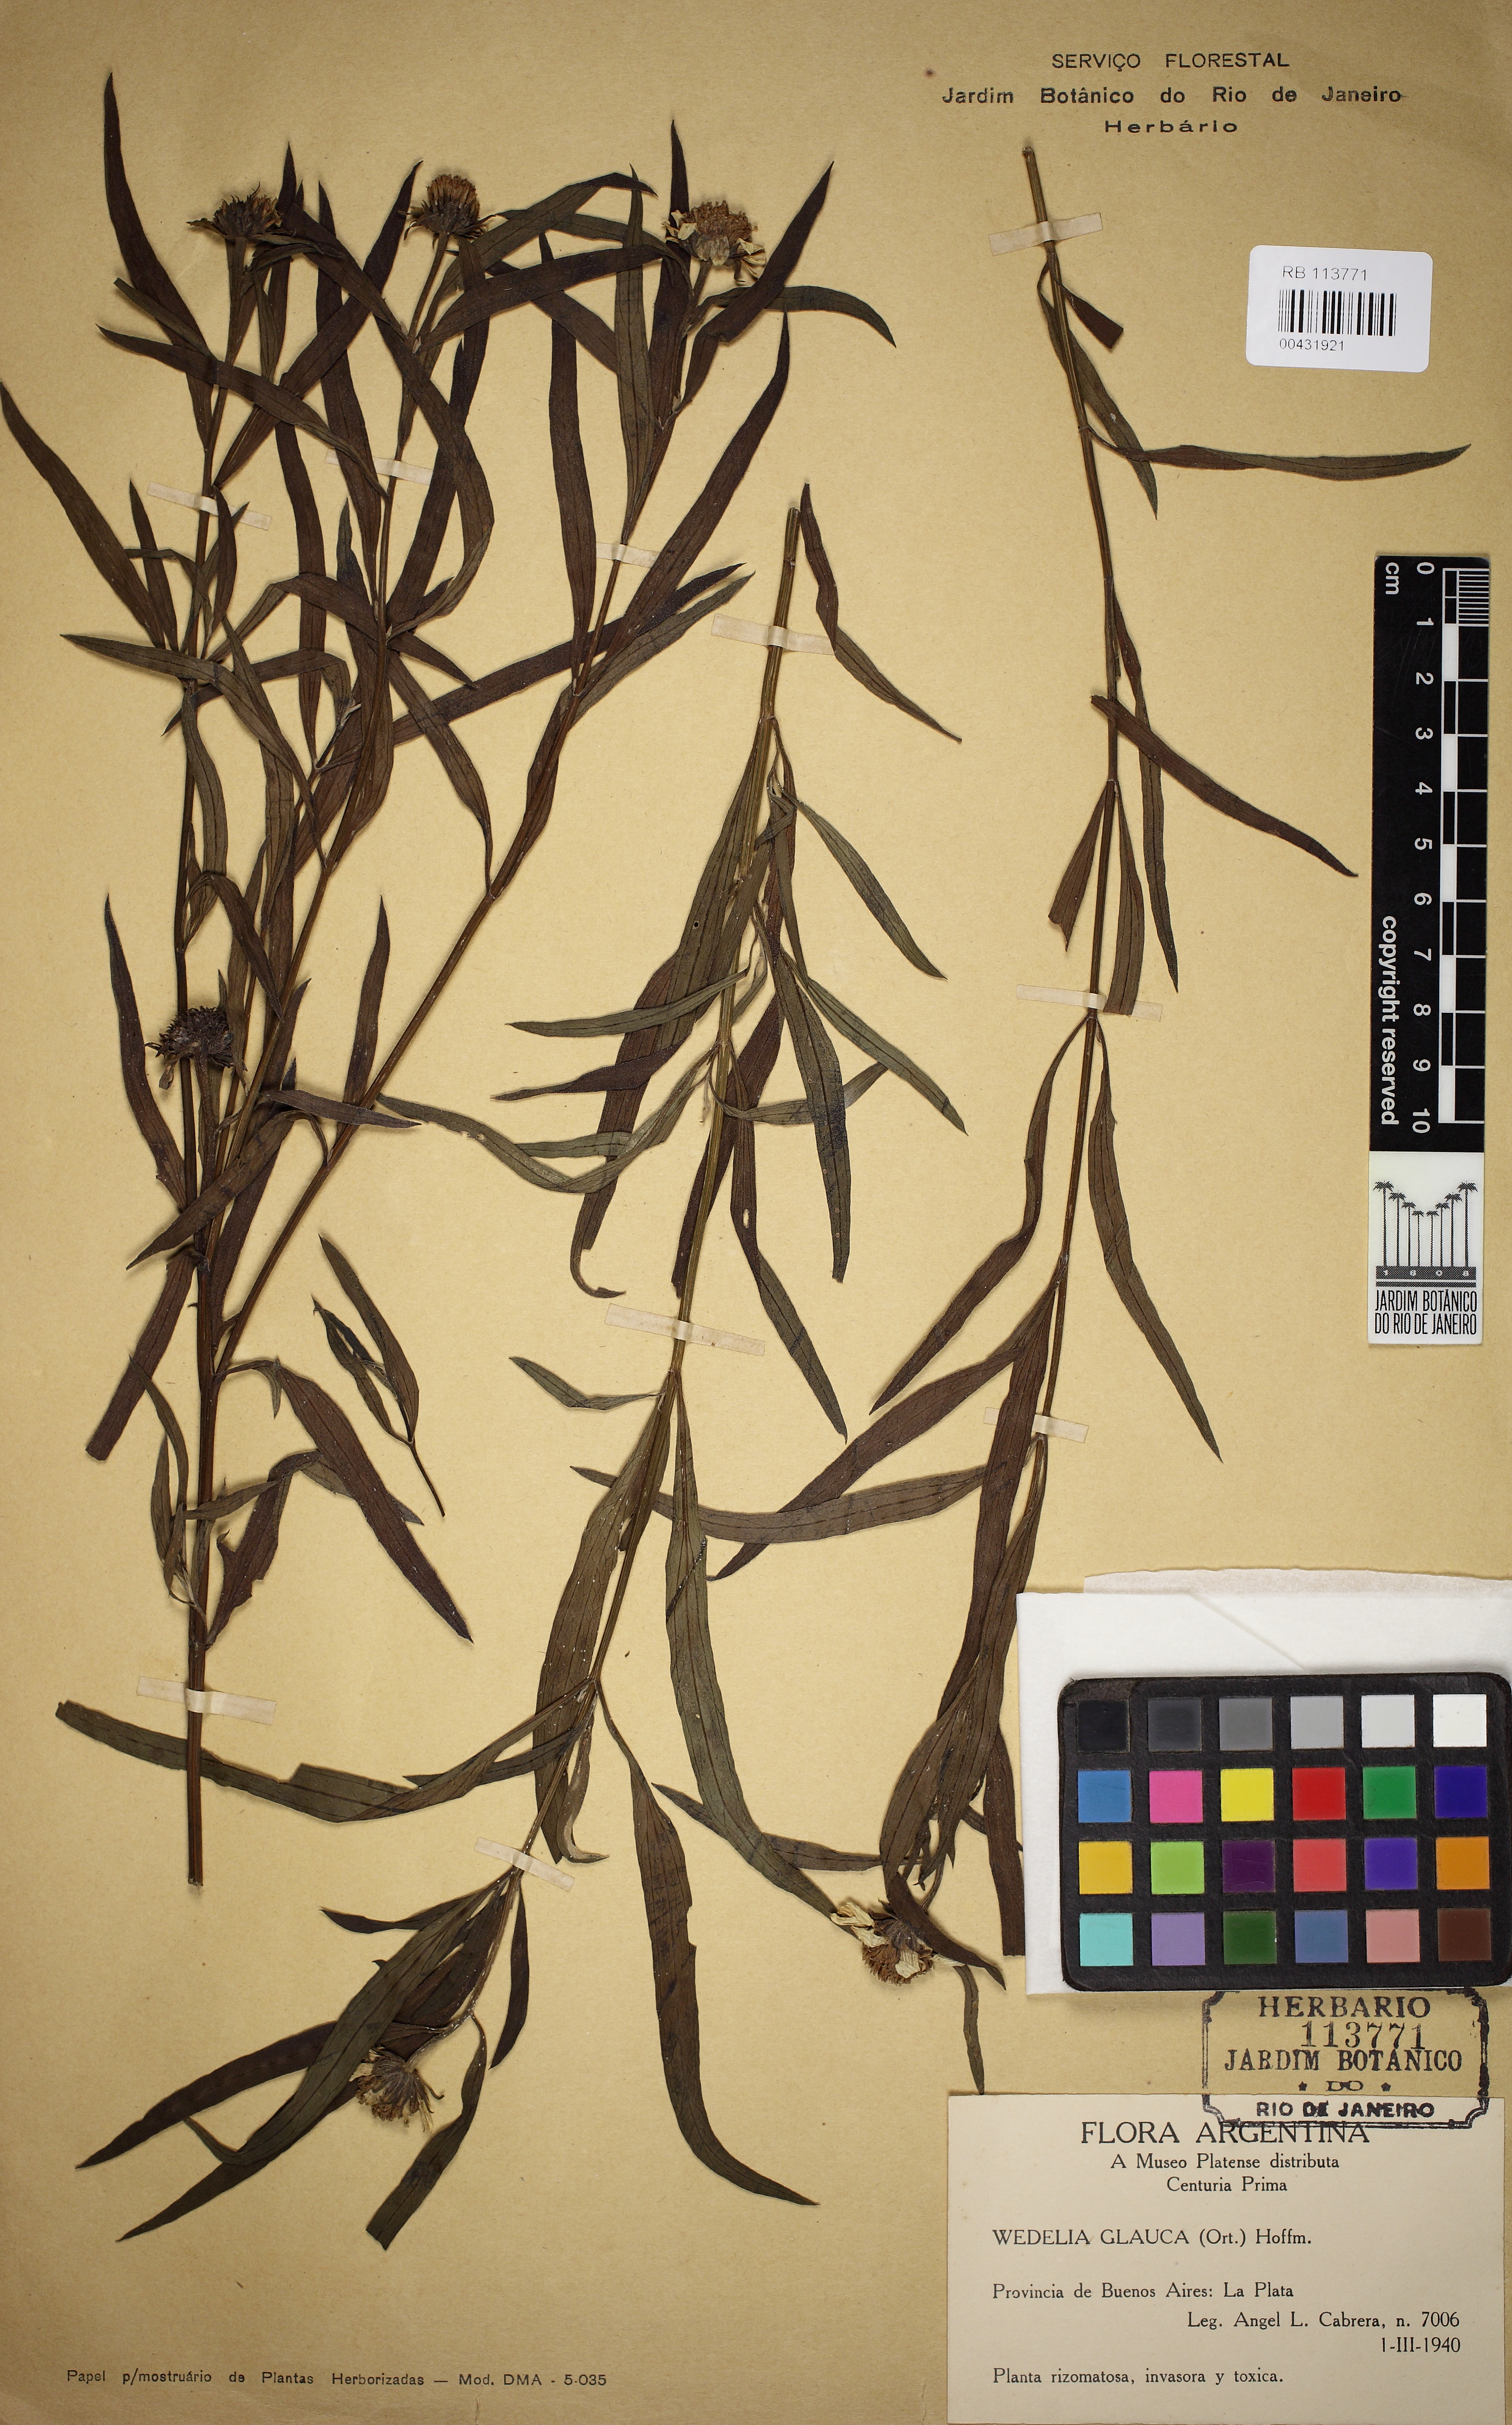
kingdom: Plantae
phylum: Tracheophyta
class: Magnoliopsida
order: Asterales
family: Asteraceae
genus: Pascalia
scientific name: Pascalia glauca
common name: Beach creeping oxeye
